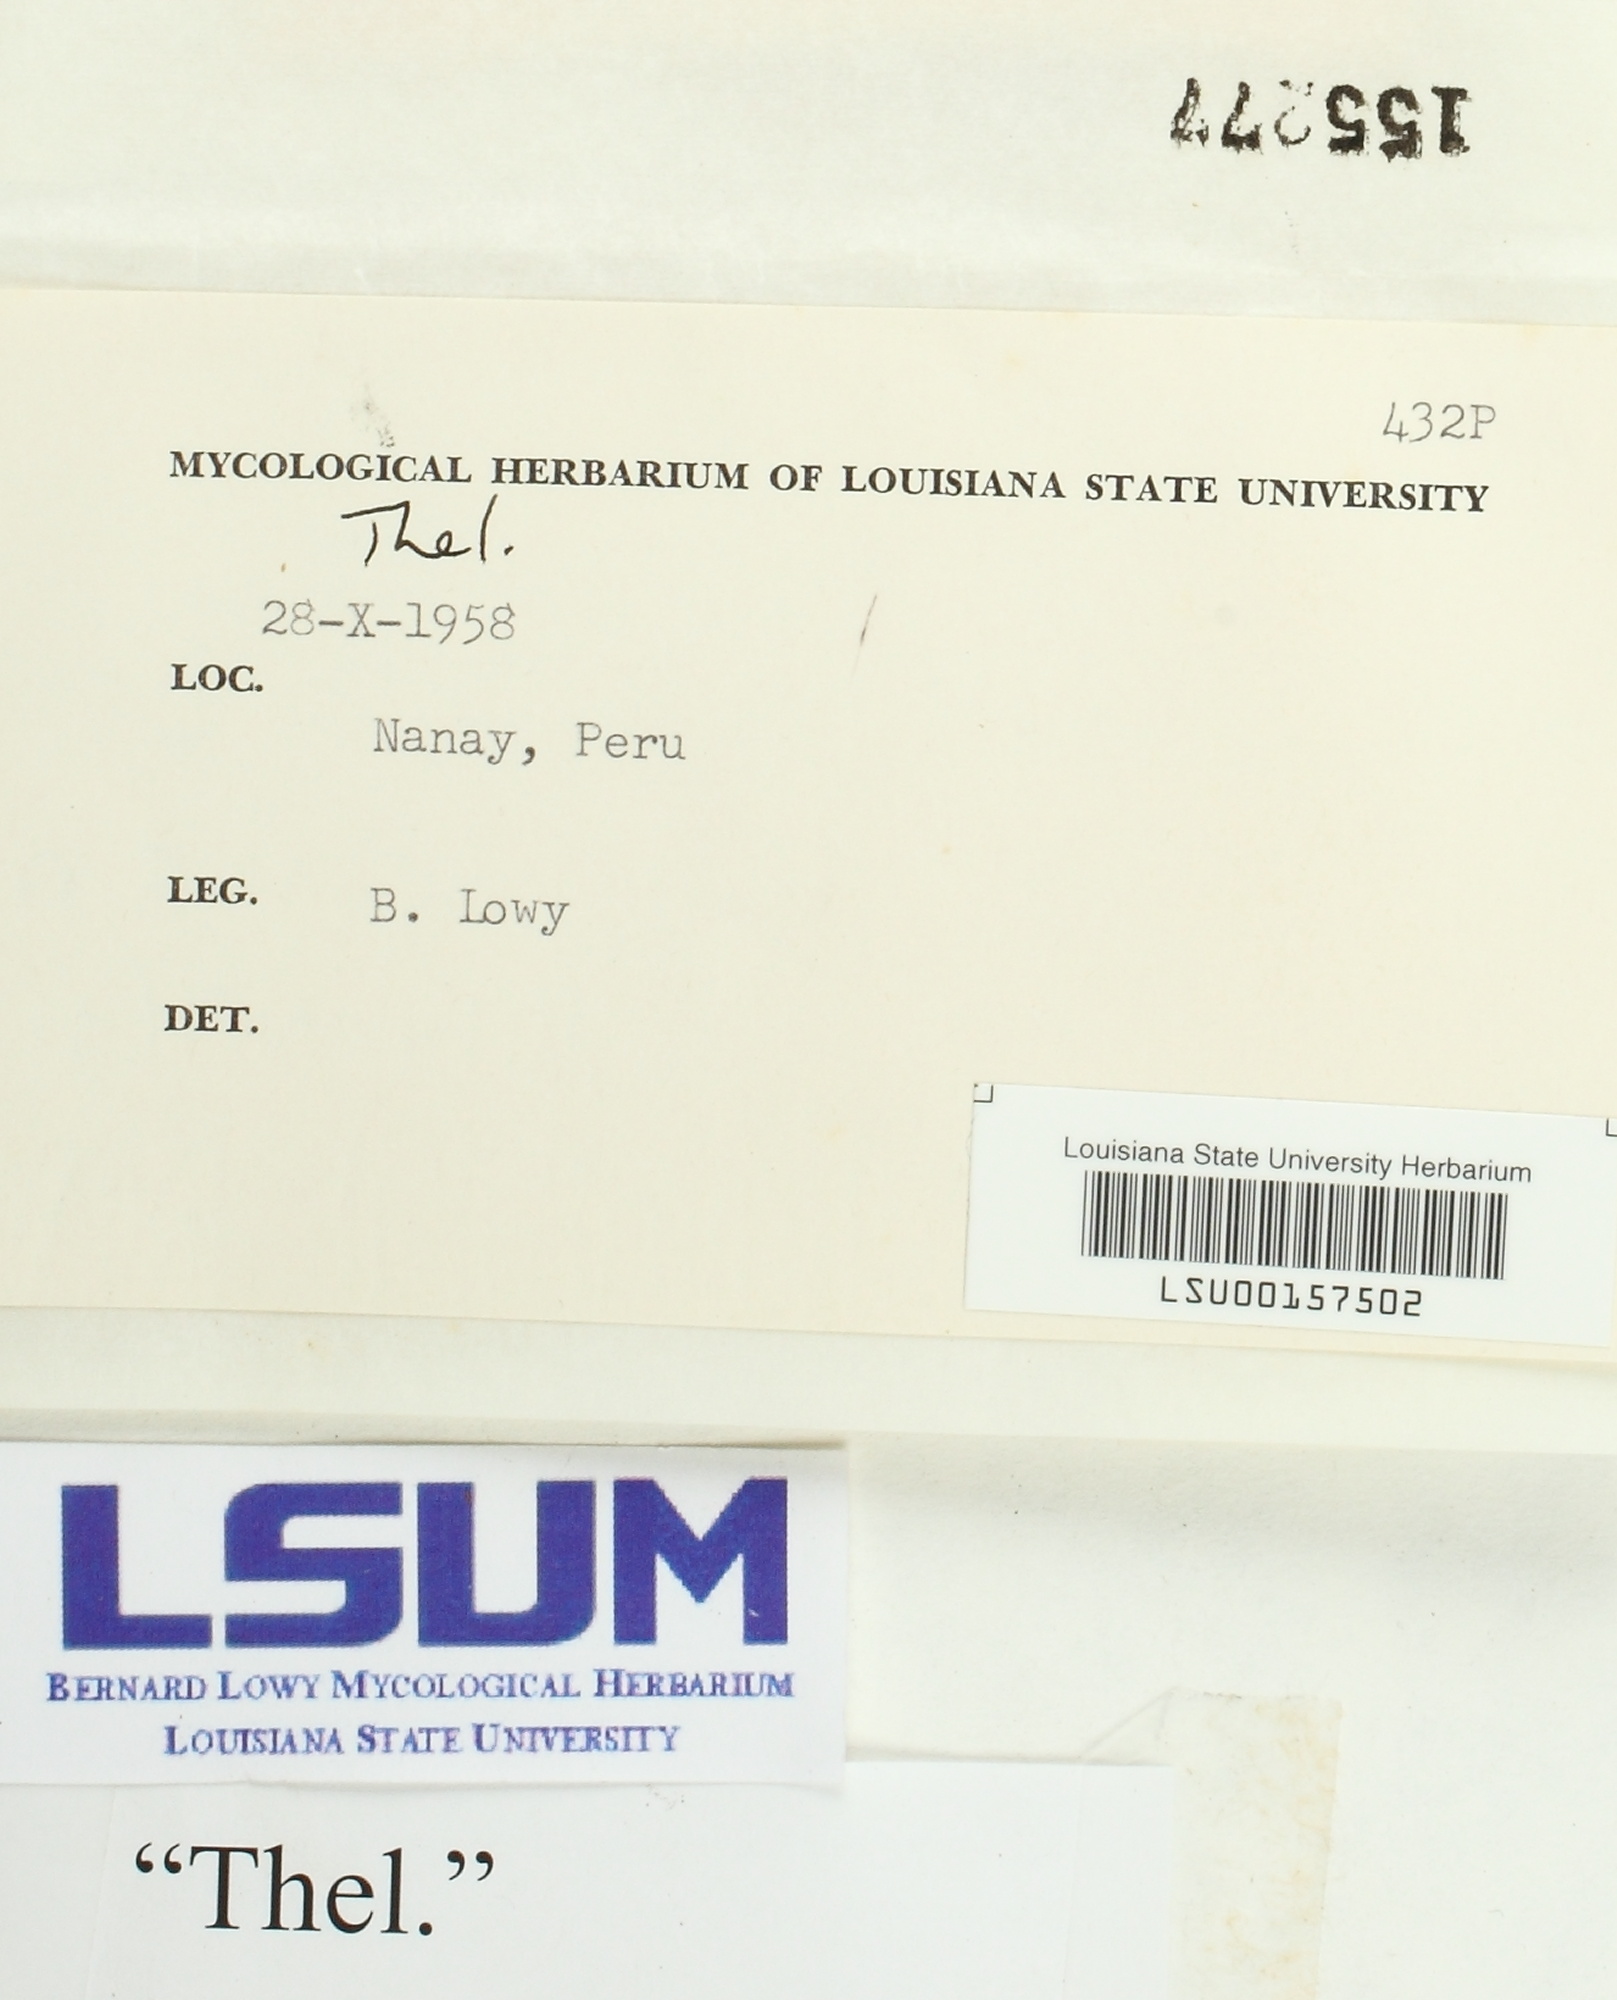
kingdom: Fungi
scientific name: Fungi
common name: Fungi
